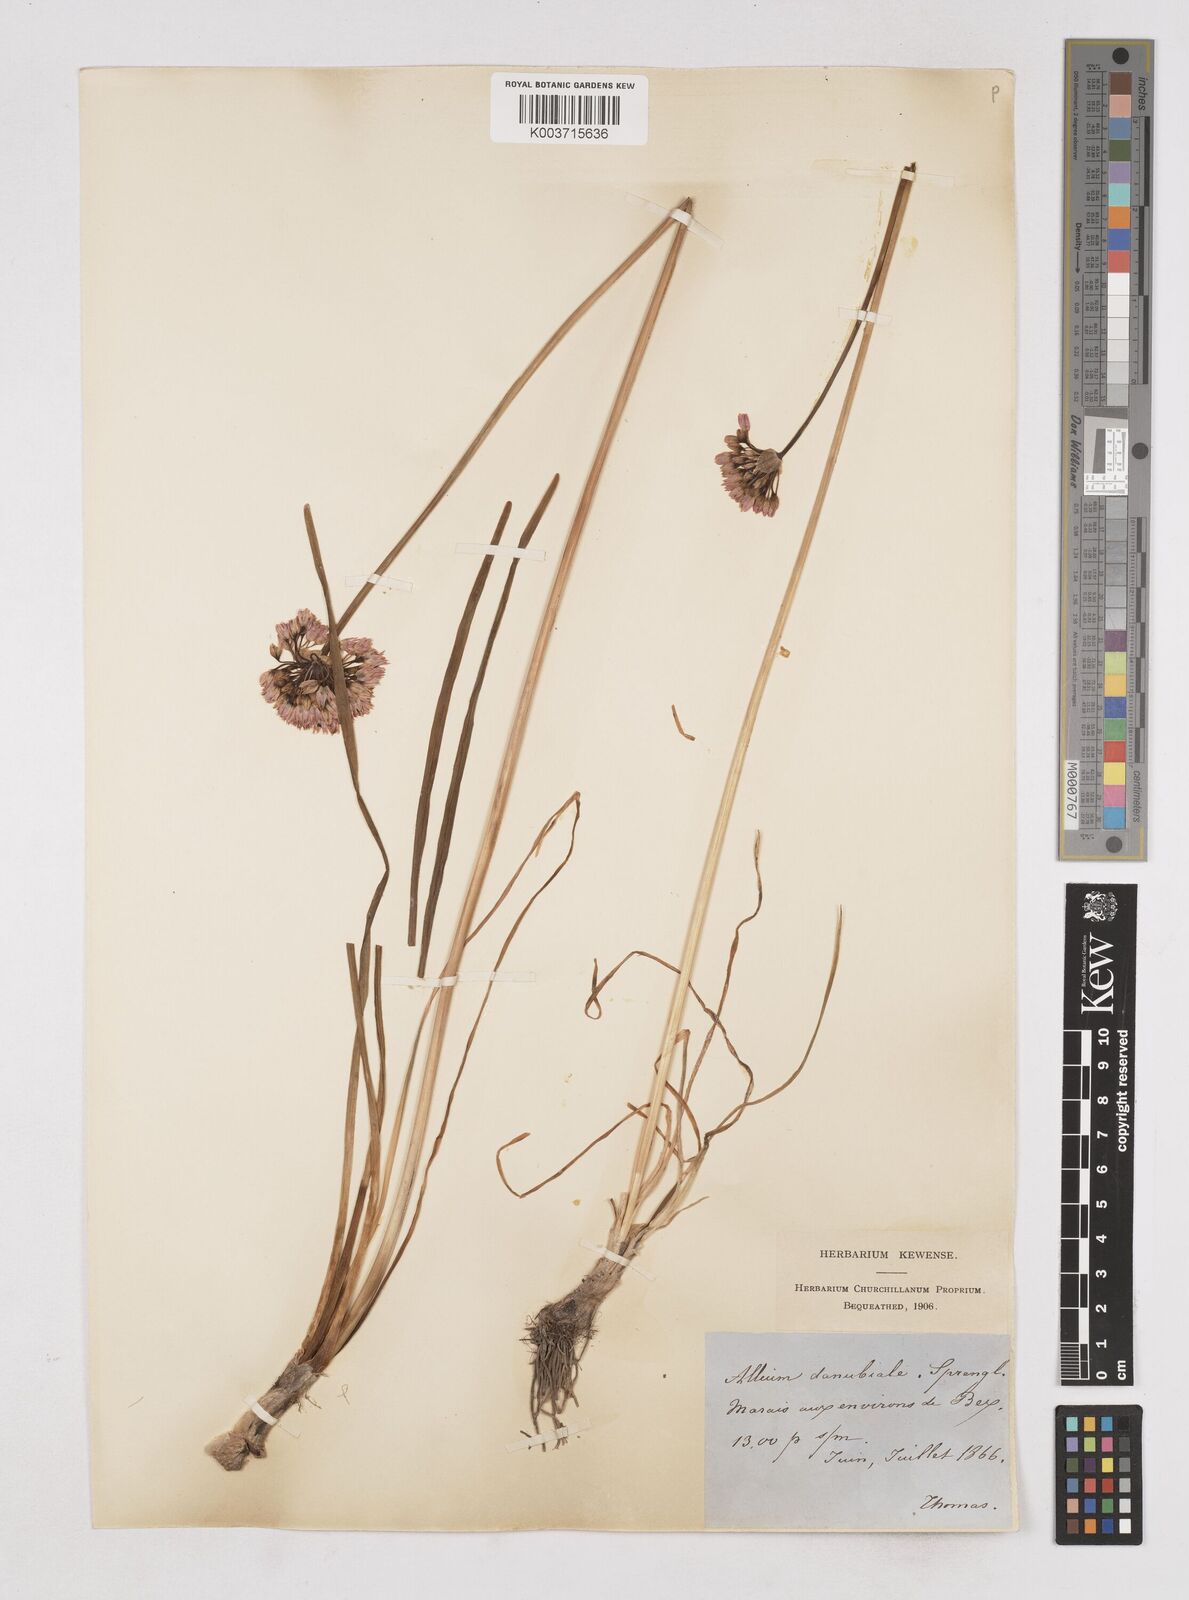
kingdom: Plantae
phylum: Tracheophyta
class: Liliopsida
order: Asparagales
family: Amaryllidaceae
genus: Allium
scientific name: Allium angulosum
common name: Mouse garlic
